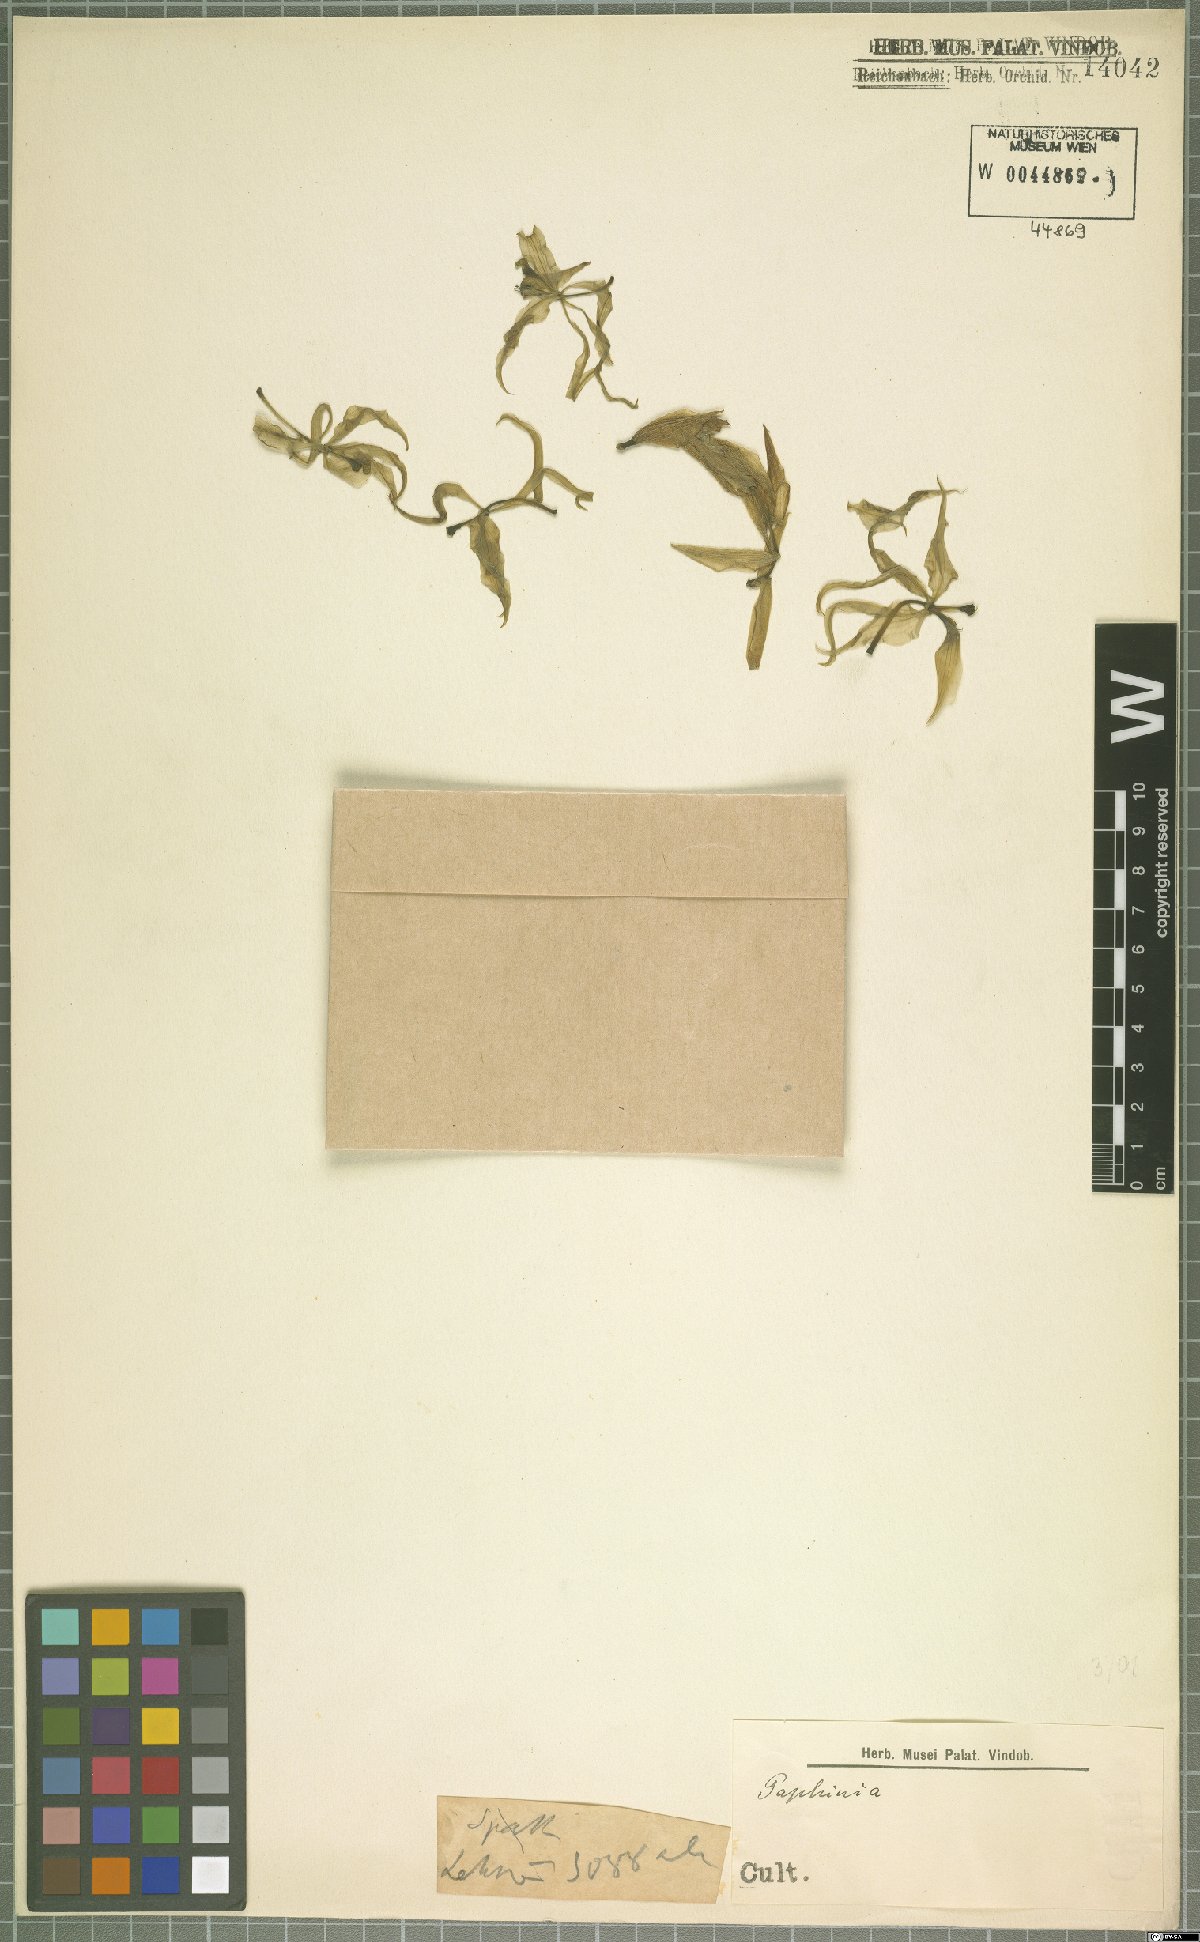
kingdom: Plantae
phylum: Tracheophyta
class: Liliopsida
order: Asparagales
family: Orchidaceae
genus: Paphinia
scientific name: Paphinia
